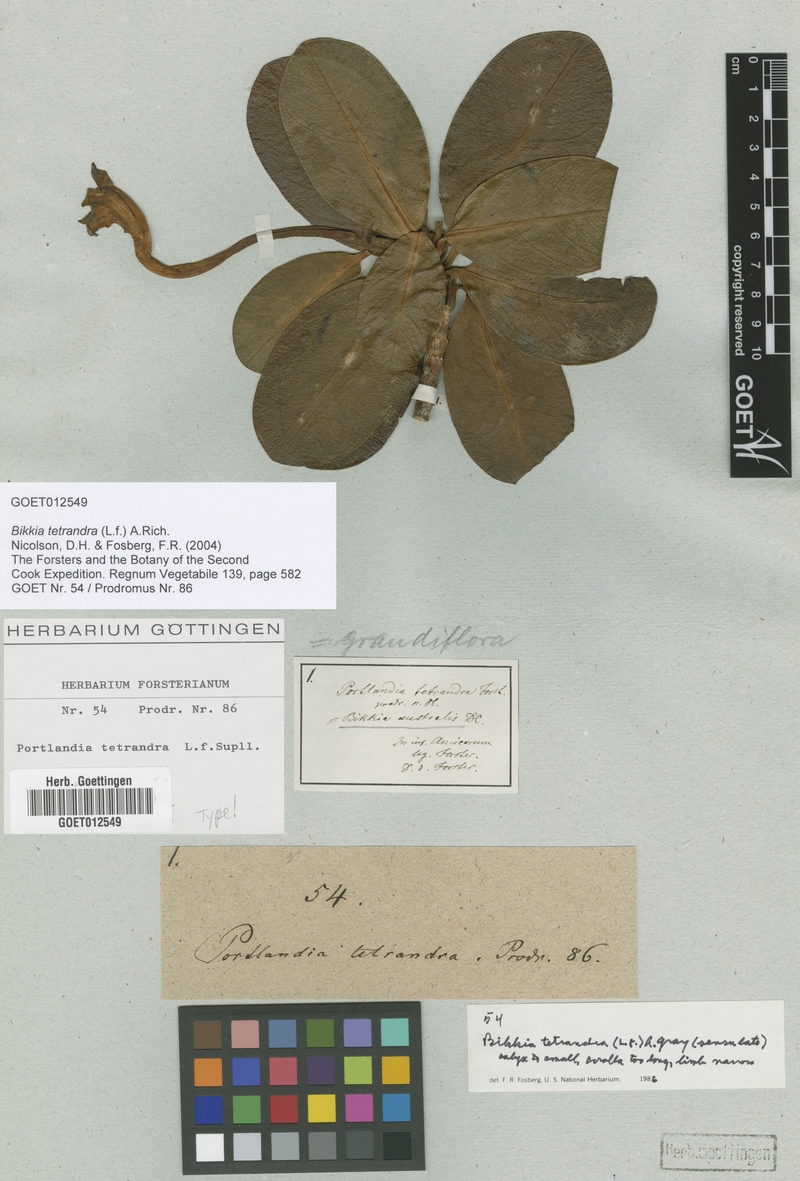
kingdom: Plantae
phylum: Tracheophyta
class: Magnoliopsida
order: Gentianales
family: Rubiaceae
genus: Bikkia
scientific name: Bikkia tetrandra
